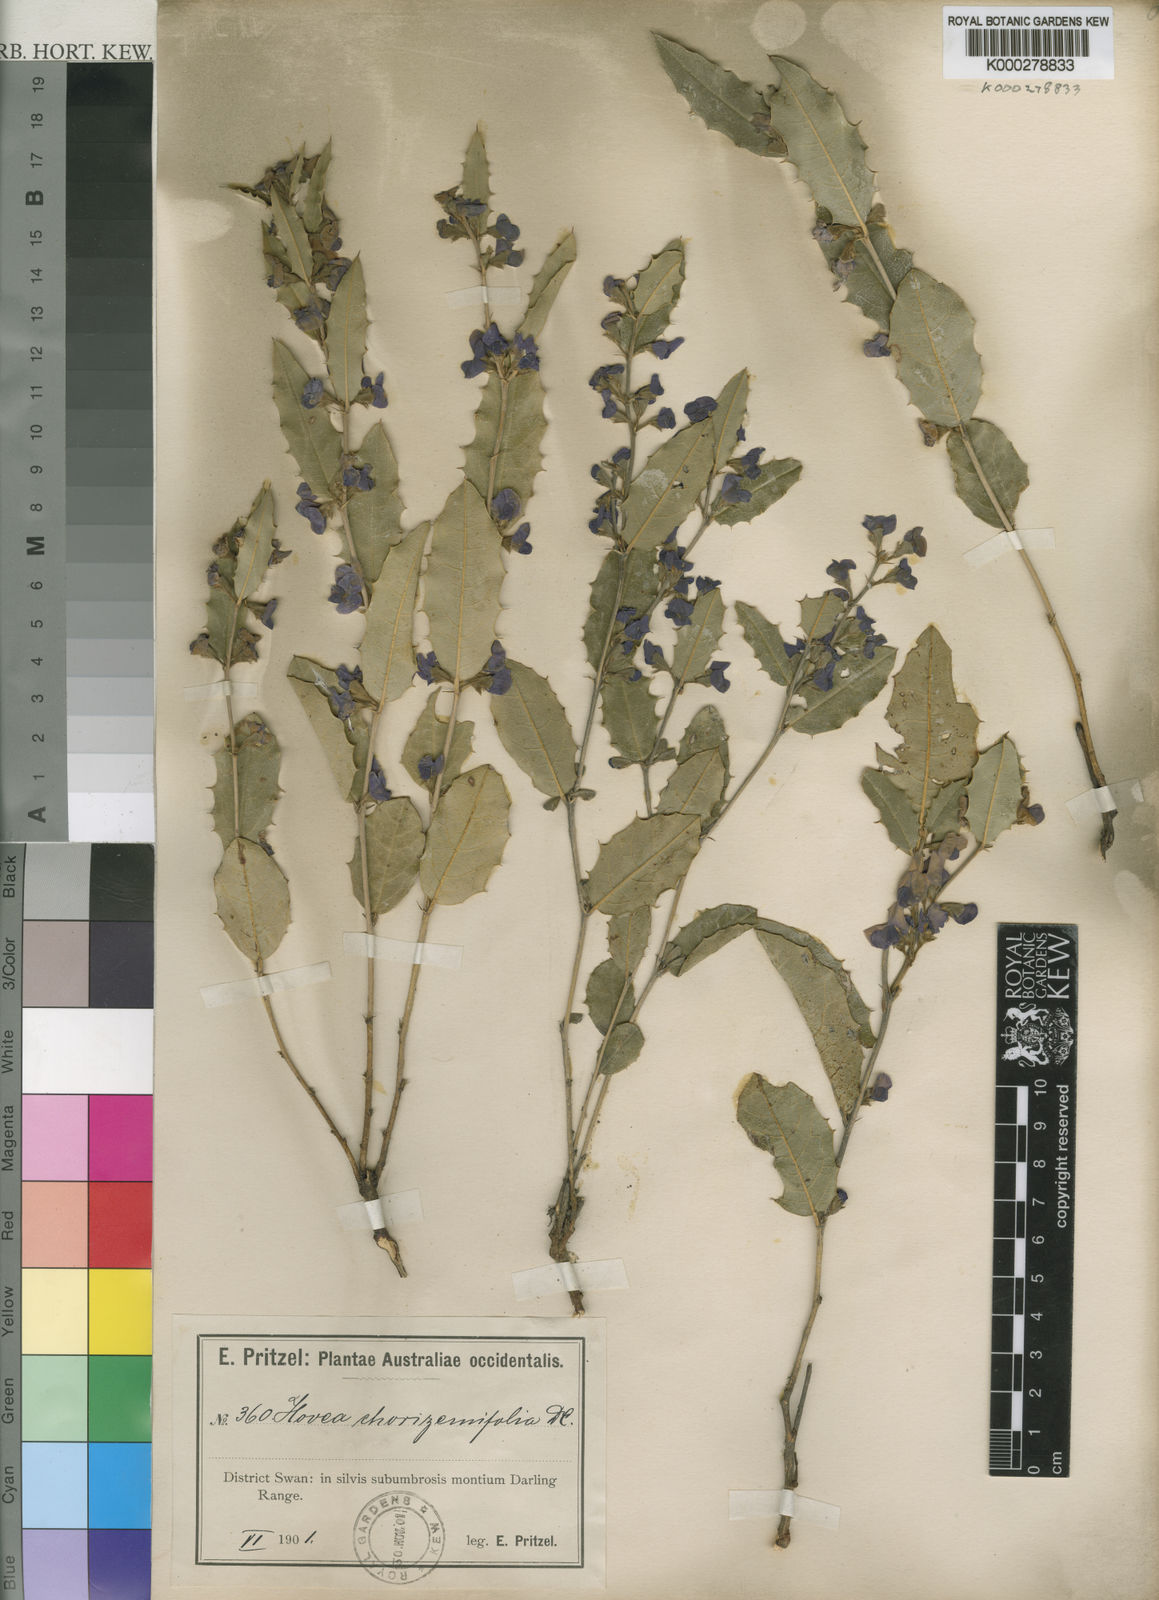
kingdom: Plantae
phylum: Tracheophyta
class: Magnoliopsida
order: Fabales
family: Fabaceae
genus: Hovea
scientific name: Hovea chorizemifolia
